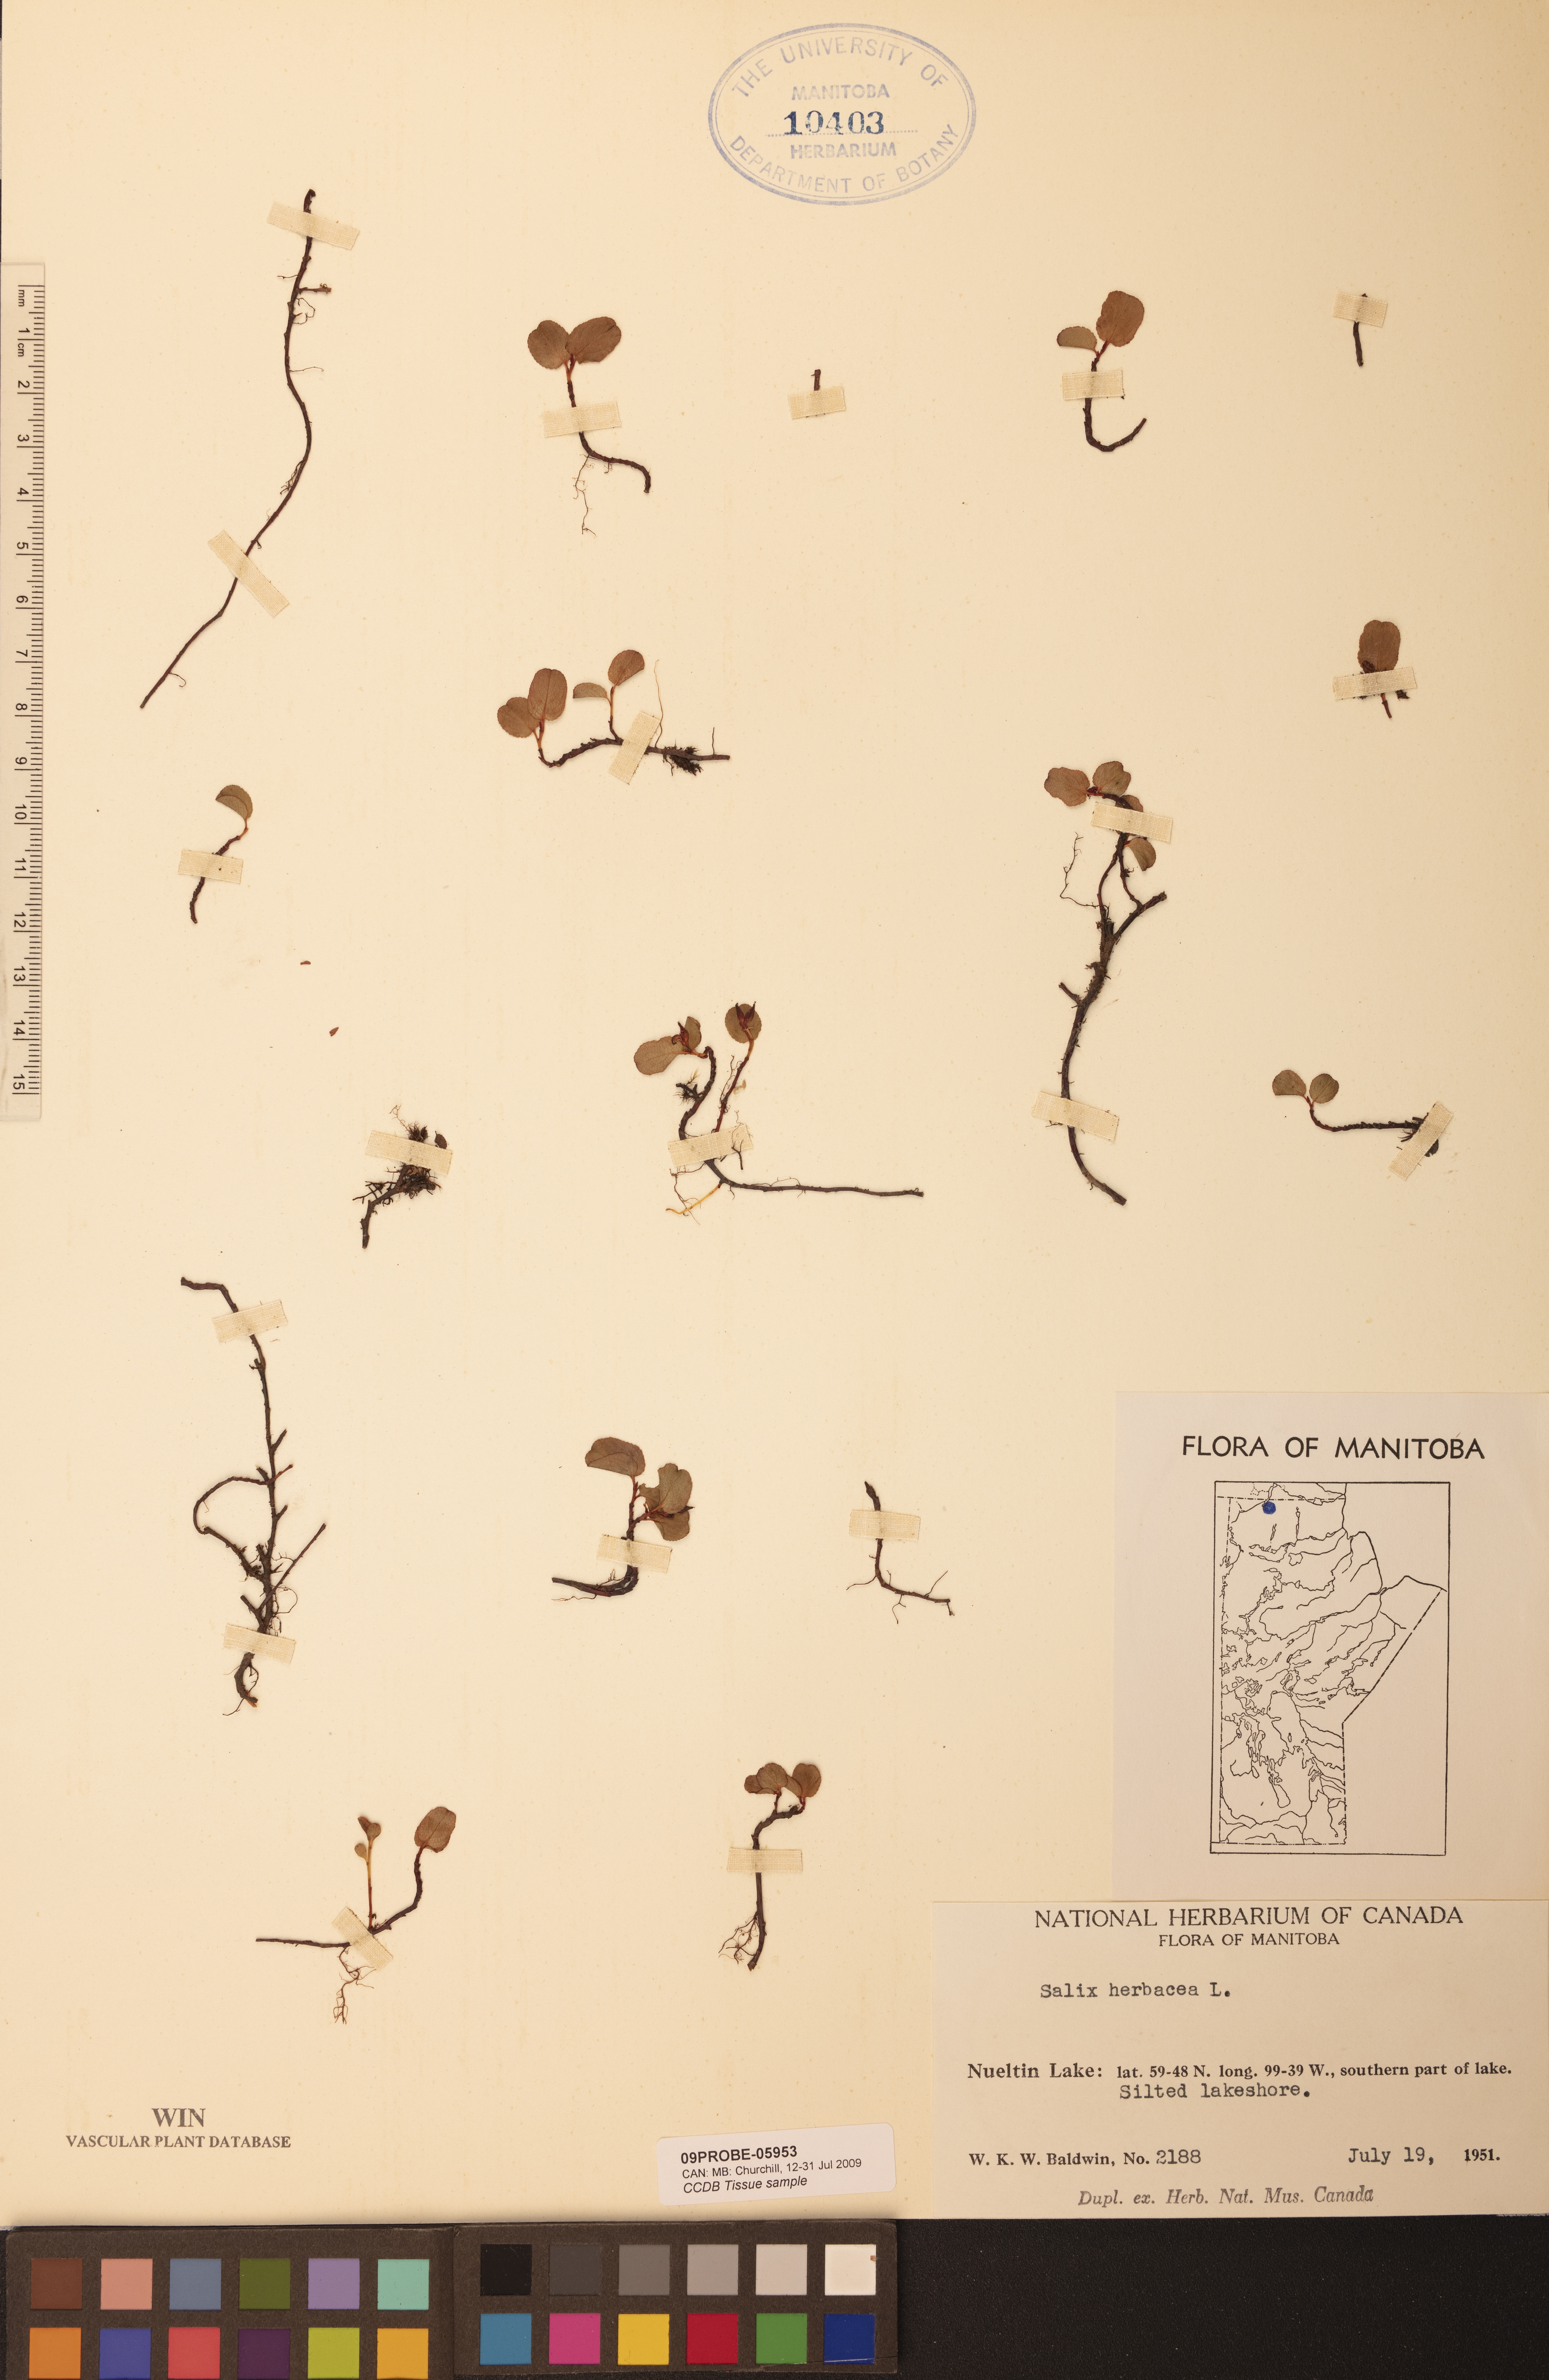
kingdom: Plantae
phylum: Tracheophyta
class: Magnoliopsida
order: Malpighiales
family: Salicaceae
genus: Salix
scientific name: Salix herbacea
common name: Dwarf willow
